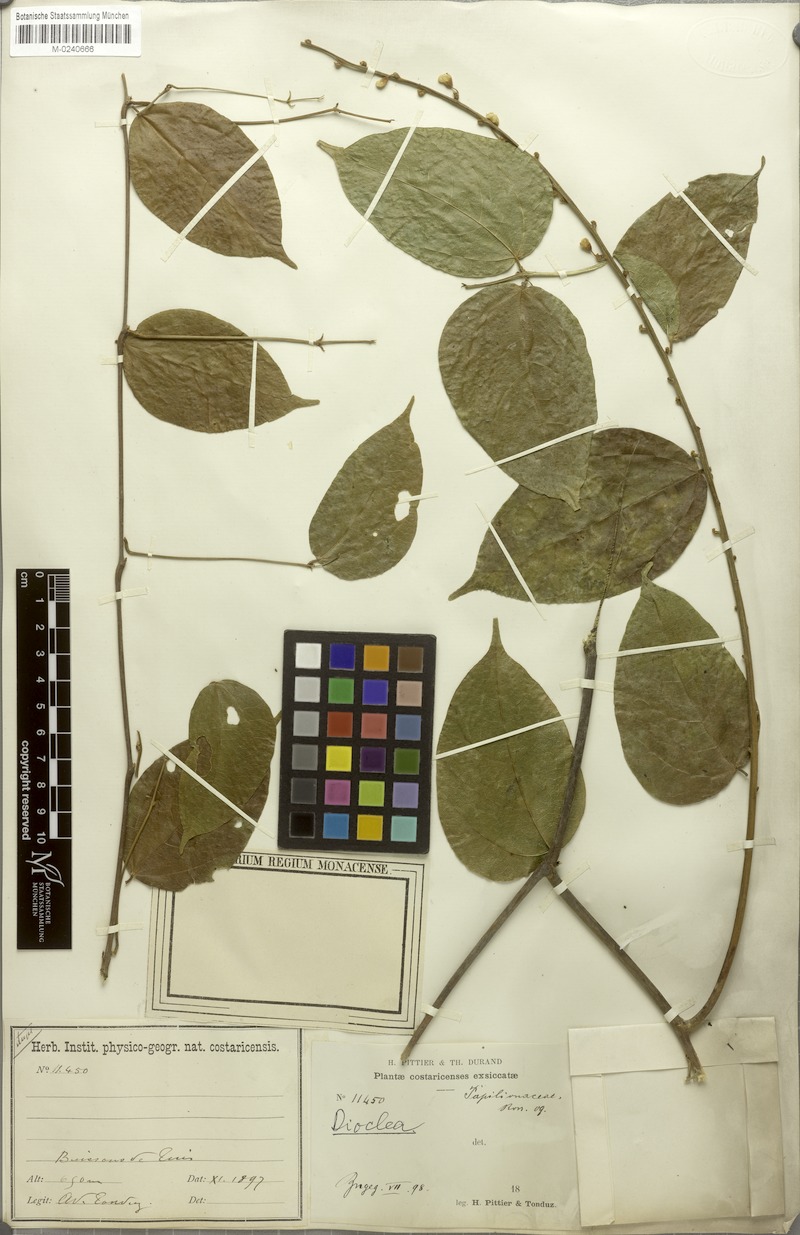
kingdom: Plantae
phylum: Tracheophyta
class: Magnoliopsida
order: Fabales
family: Fabaceae
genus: Oxyrhynchus
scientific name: Oxyrhynchus trinervius
